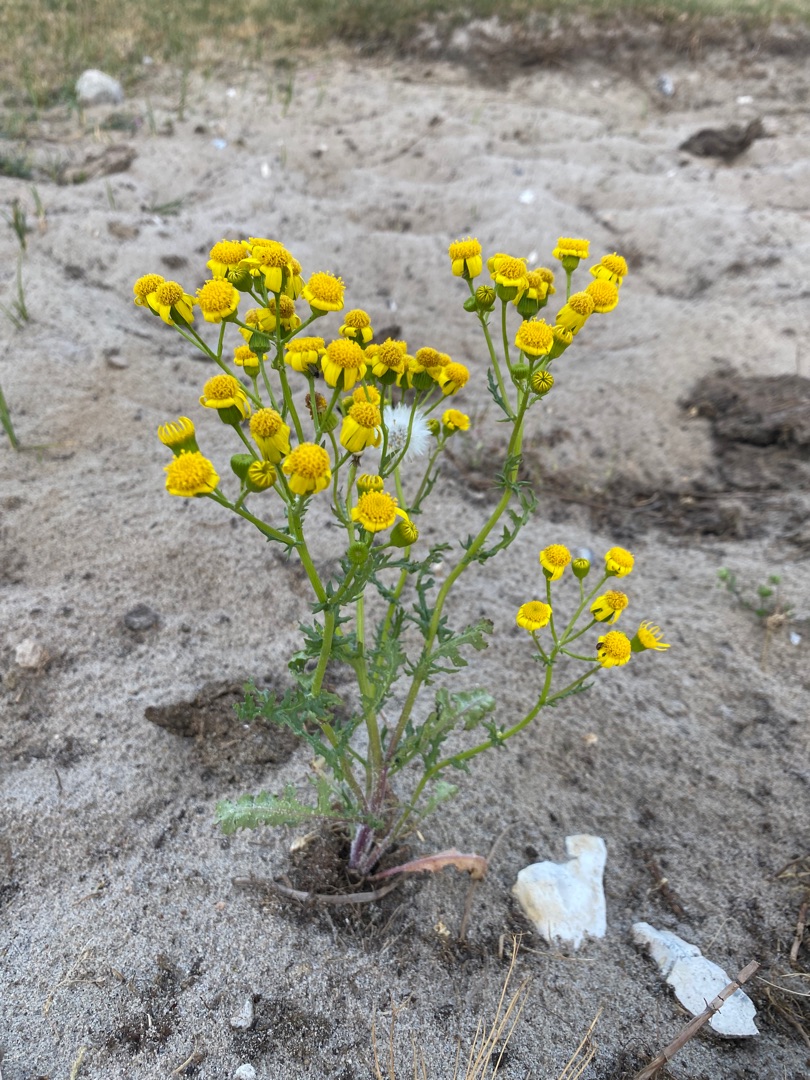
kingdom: Plantae
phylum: Tracheophyta
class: Magnoliopsida
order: Asterales
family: Asteraceae
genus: Senecio
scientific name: Senecio leucanthemifolius
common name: Vår-brandbæger
